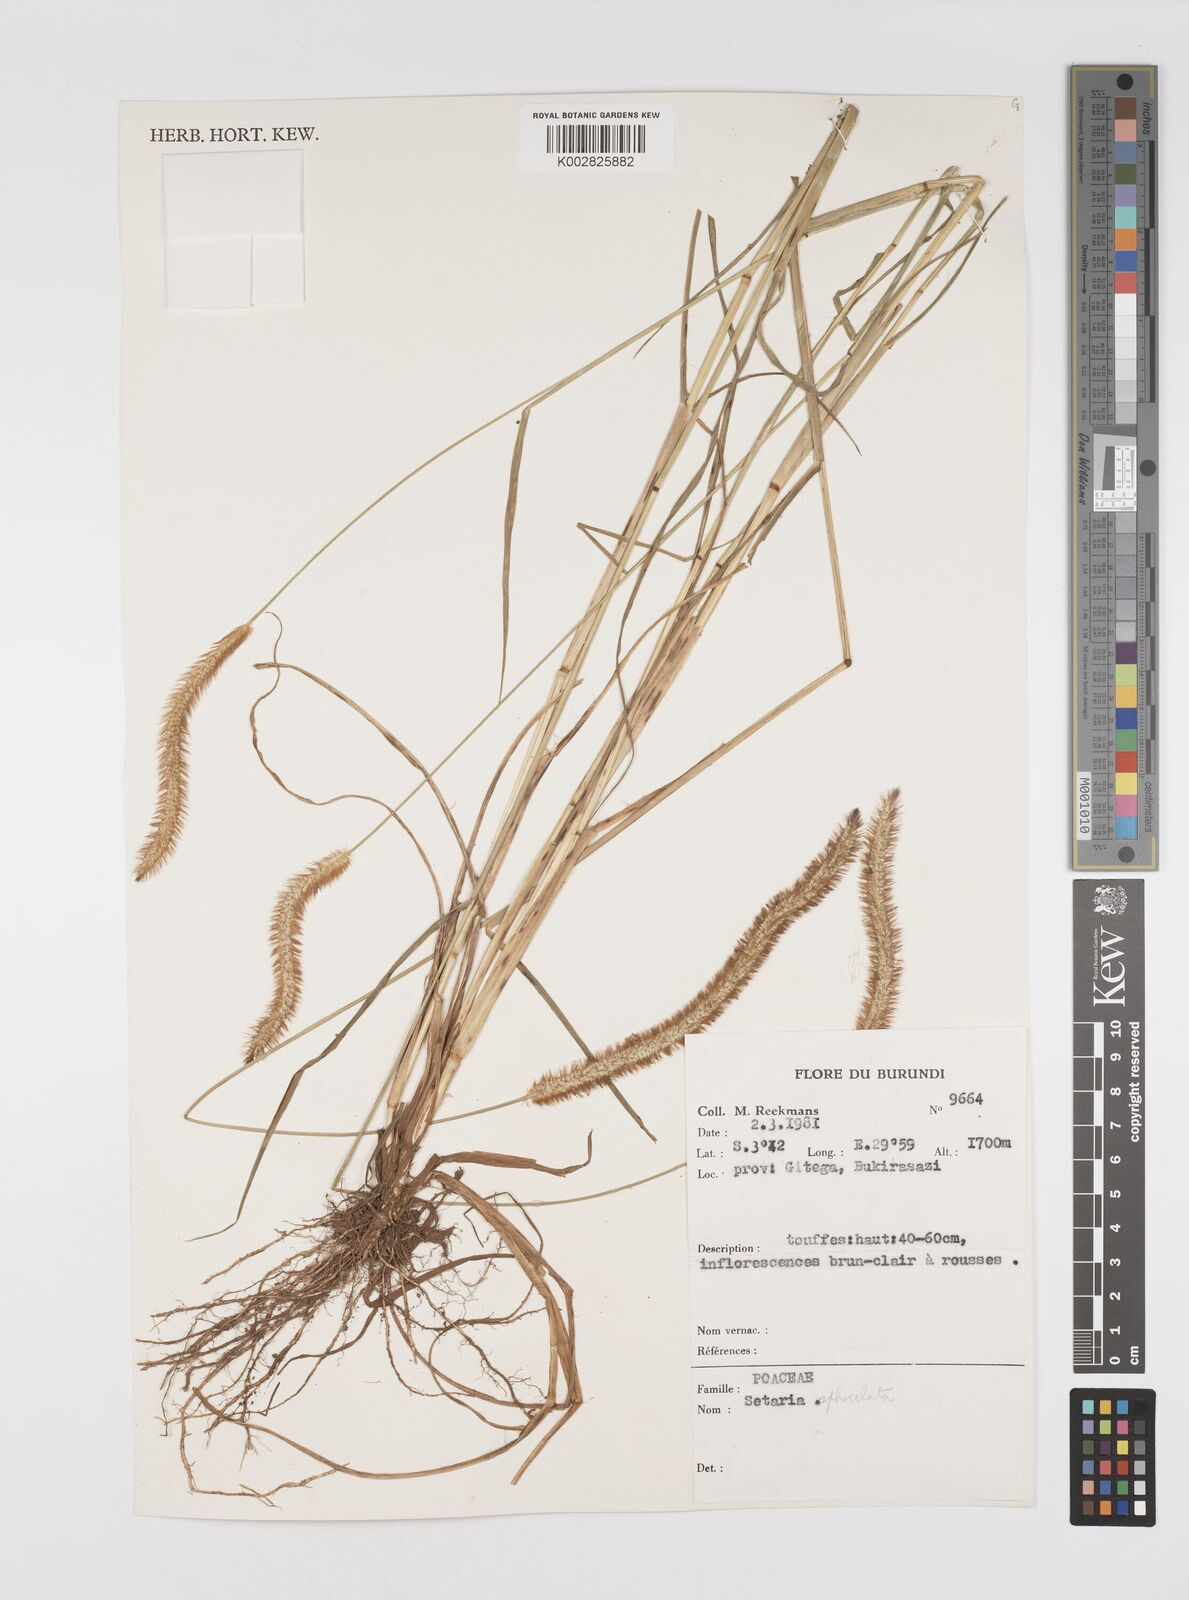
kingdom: Plantae
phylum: Tracheophyta
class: Liliopsida
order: Poales
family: Poaceae
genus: Setaria
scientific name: Setaria sphacelata
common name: African bristlegrass
